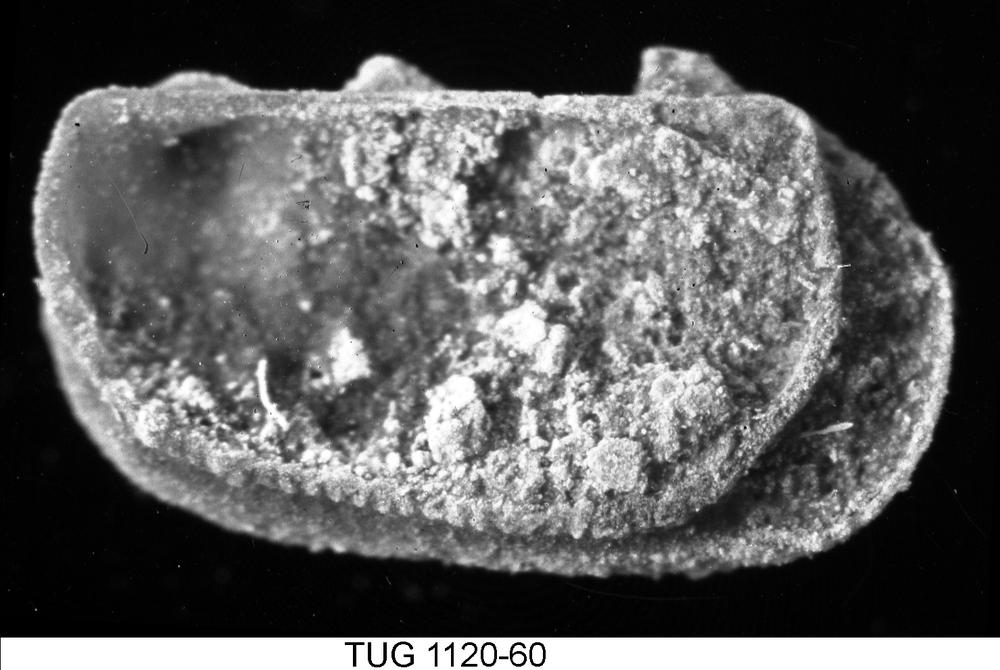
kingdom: Animalia
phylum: Arthropoda
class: Ostracoda
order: Palaeocopida
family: Ctenonotellidae
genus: Tallinnella
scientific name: Tallinnella dimorpha
